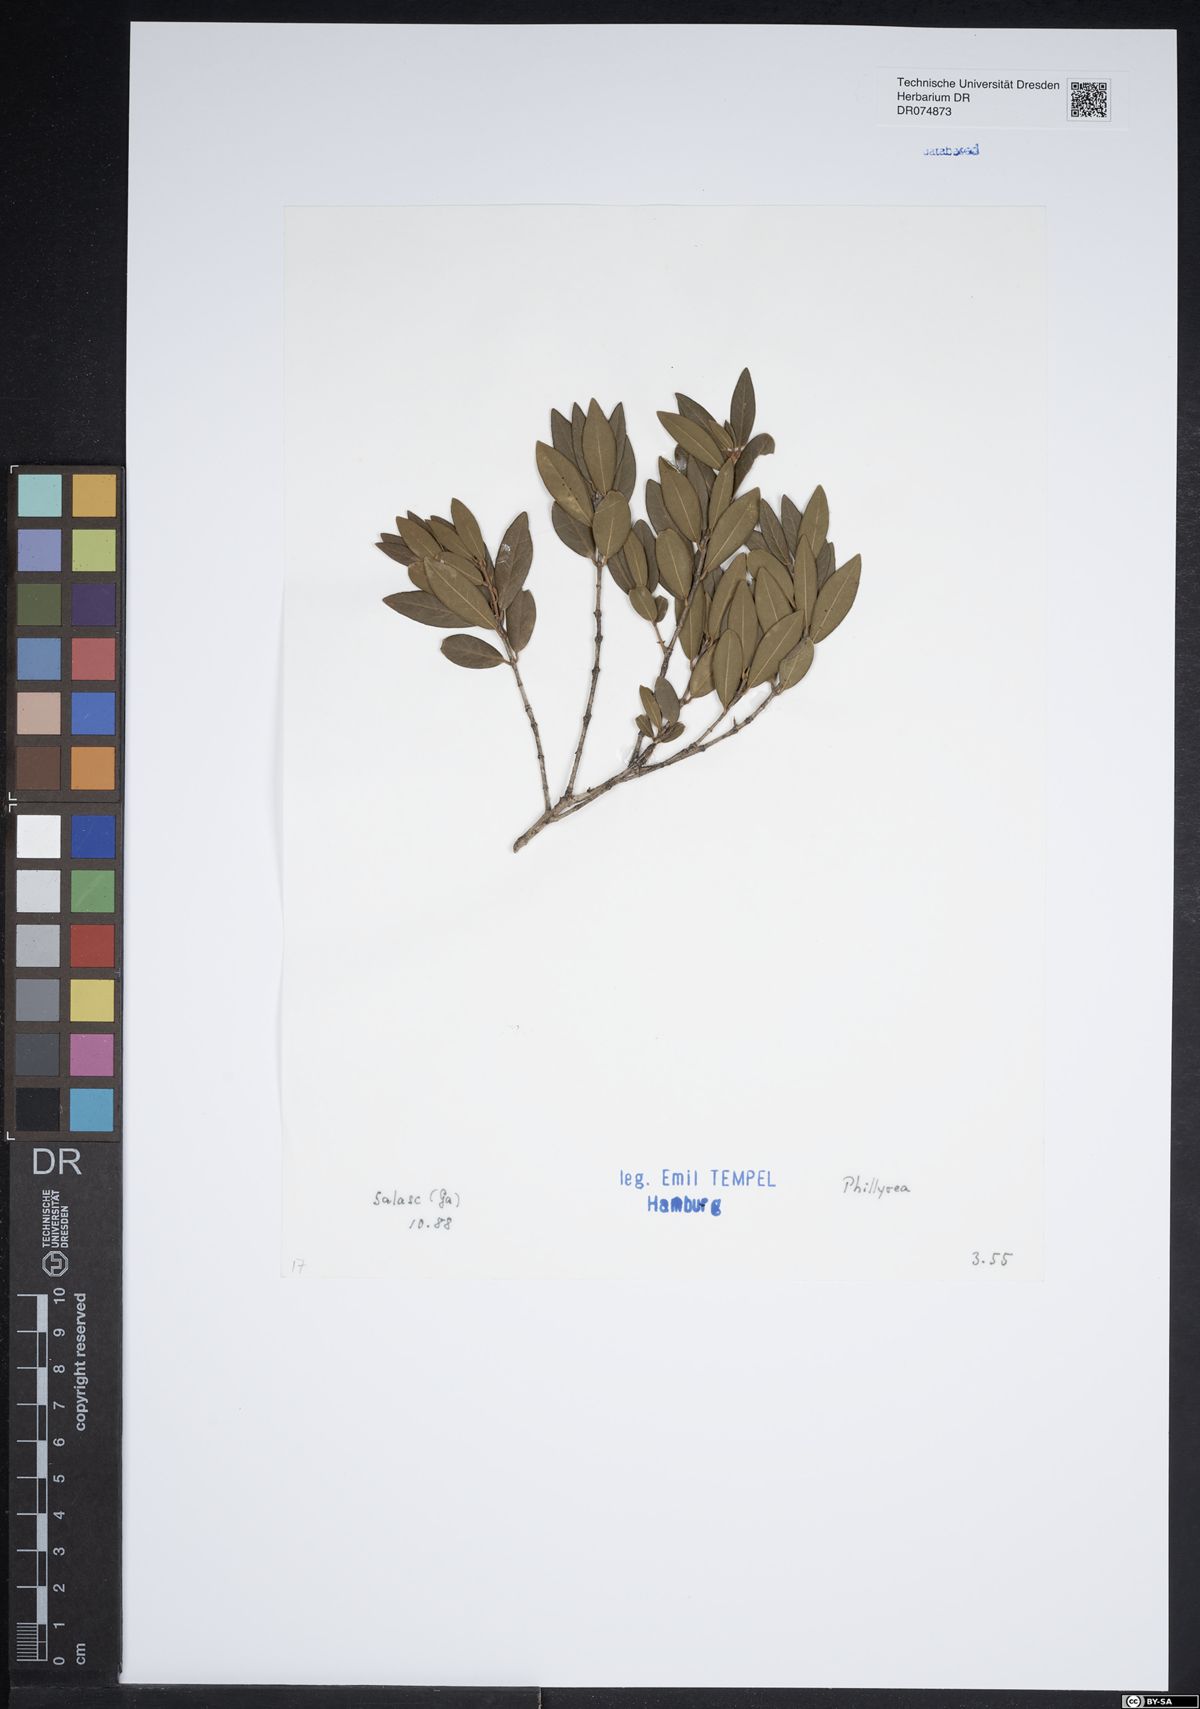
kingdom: Plantae
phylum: Tracheophyta
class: Magnoliopsida
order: Lamiales
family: Oleaceae
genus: Phillyrea
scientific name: Phillyrea
